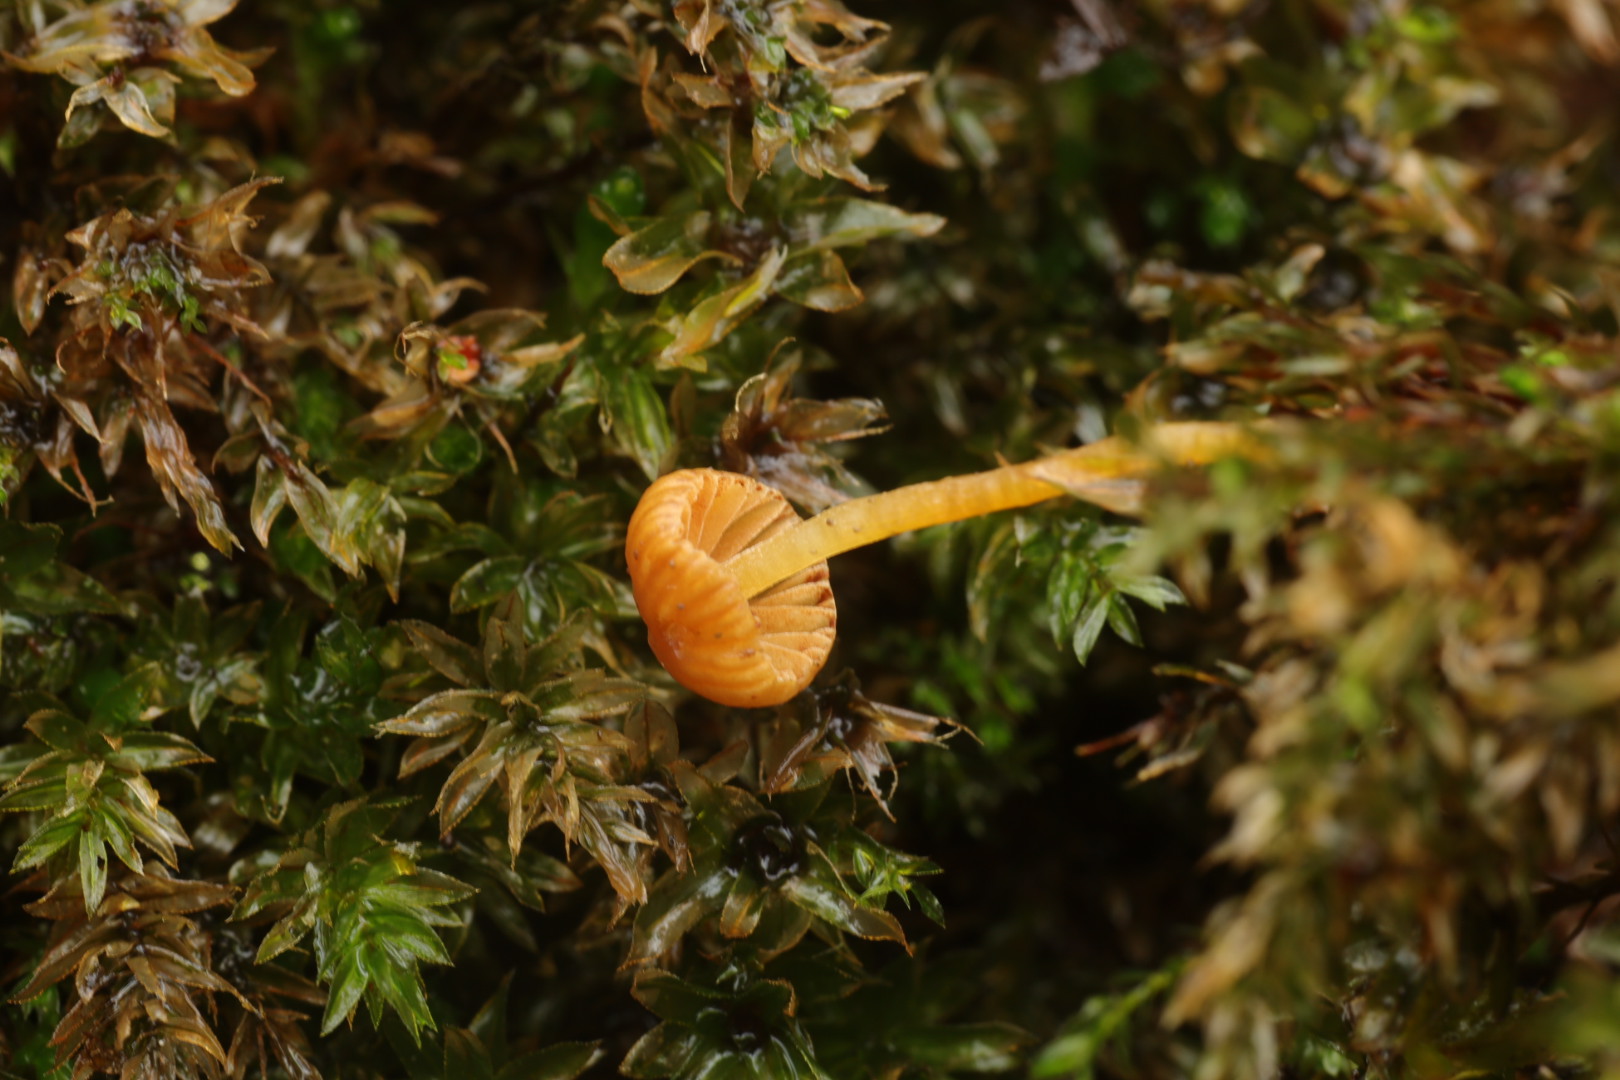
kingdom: Fungi
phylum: Basidiomycota
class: Agaricomycetes
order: Agaricales
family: Hymenogastraceae
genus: Galerina
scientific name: Galerina
